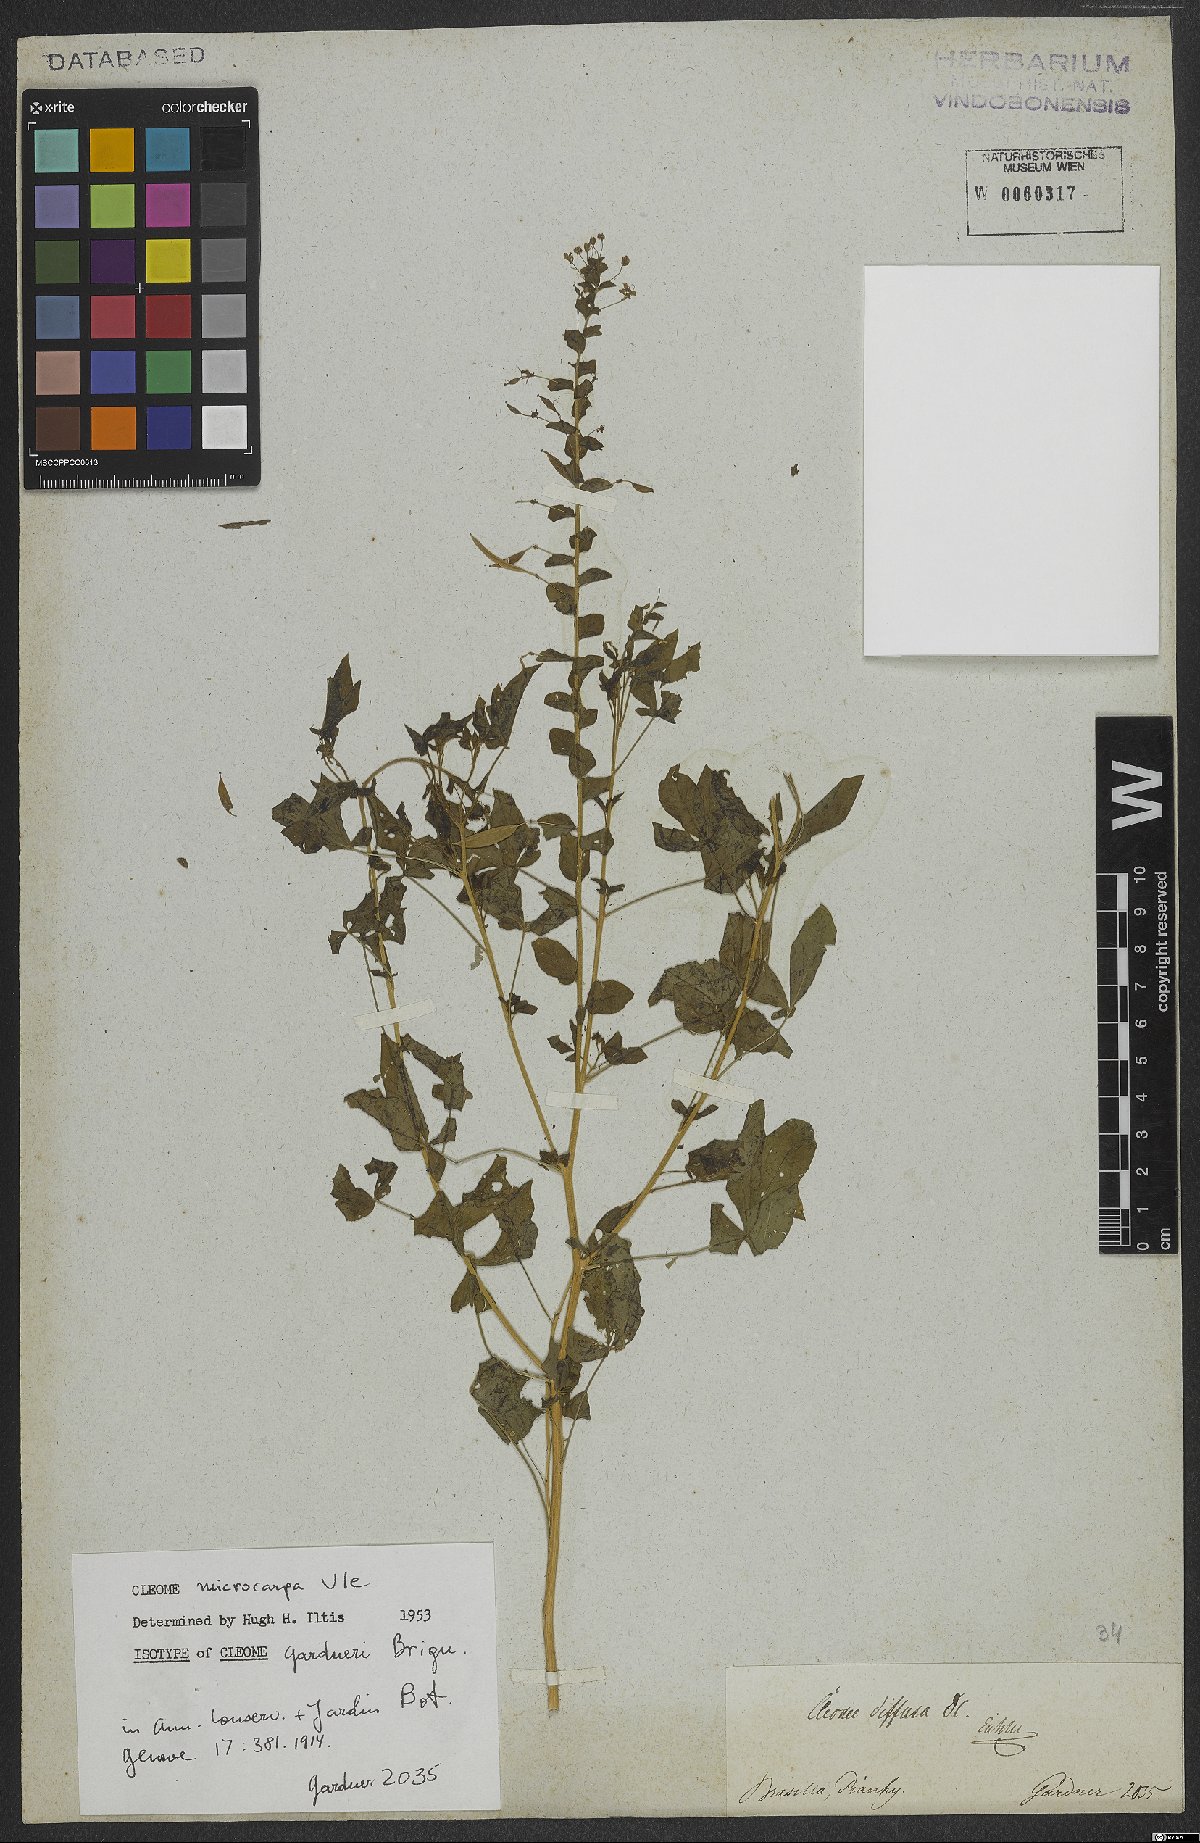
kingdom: Plantae
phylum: Tracheophyta
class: Magnoliopsida
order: Brassicales
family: Cleomaceae
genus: Tarenaya
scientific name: Tarenaya microcarpa
